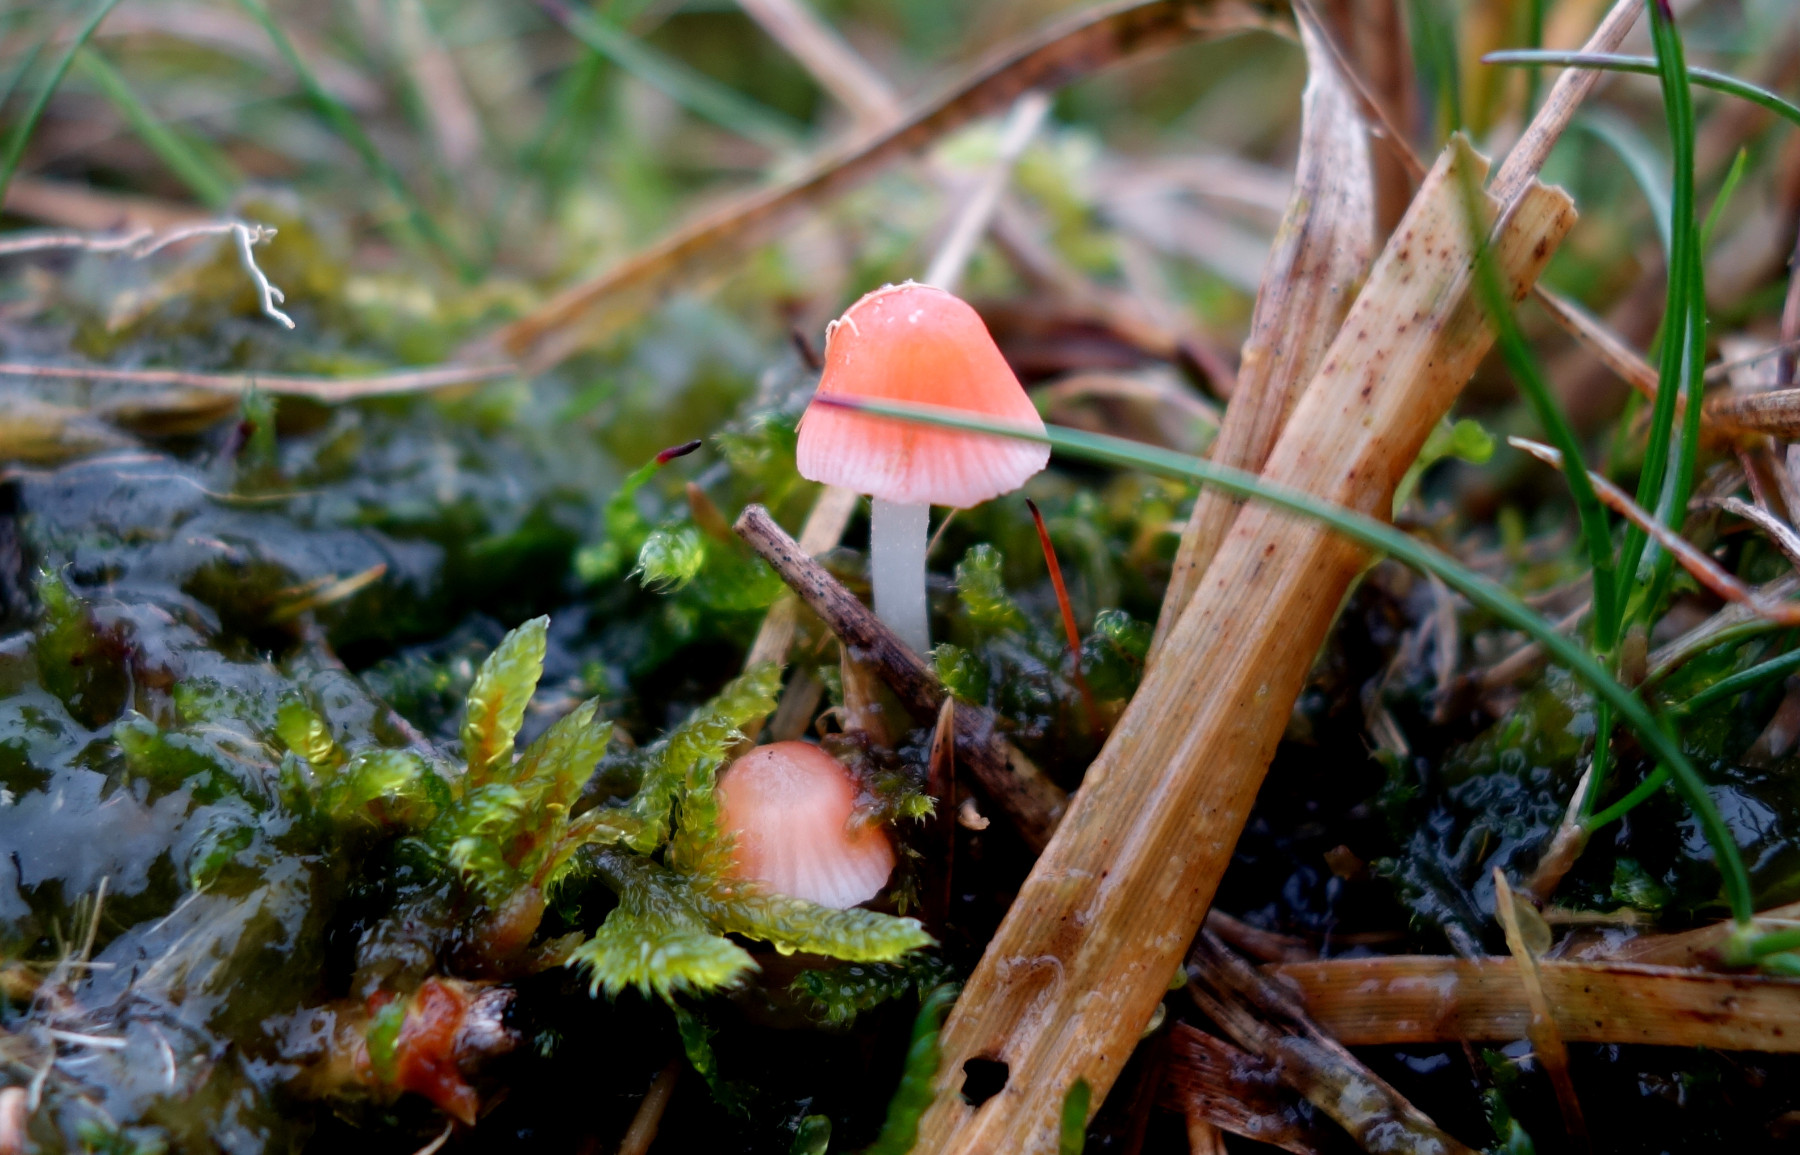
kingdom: Fungi
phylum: Basidiomycota
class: Agaricomycetes
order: Agaricales
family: Mycenaceae
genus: Atheniella
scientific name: Atheniella adonis
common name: rønnerød huesvamp
